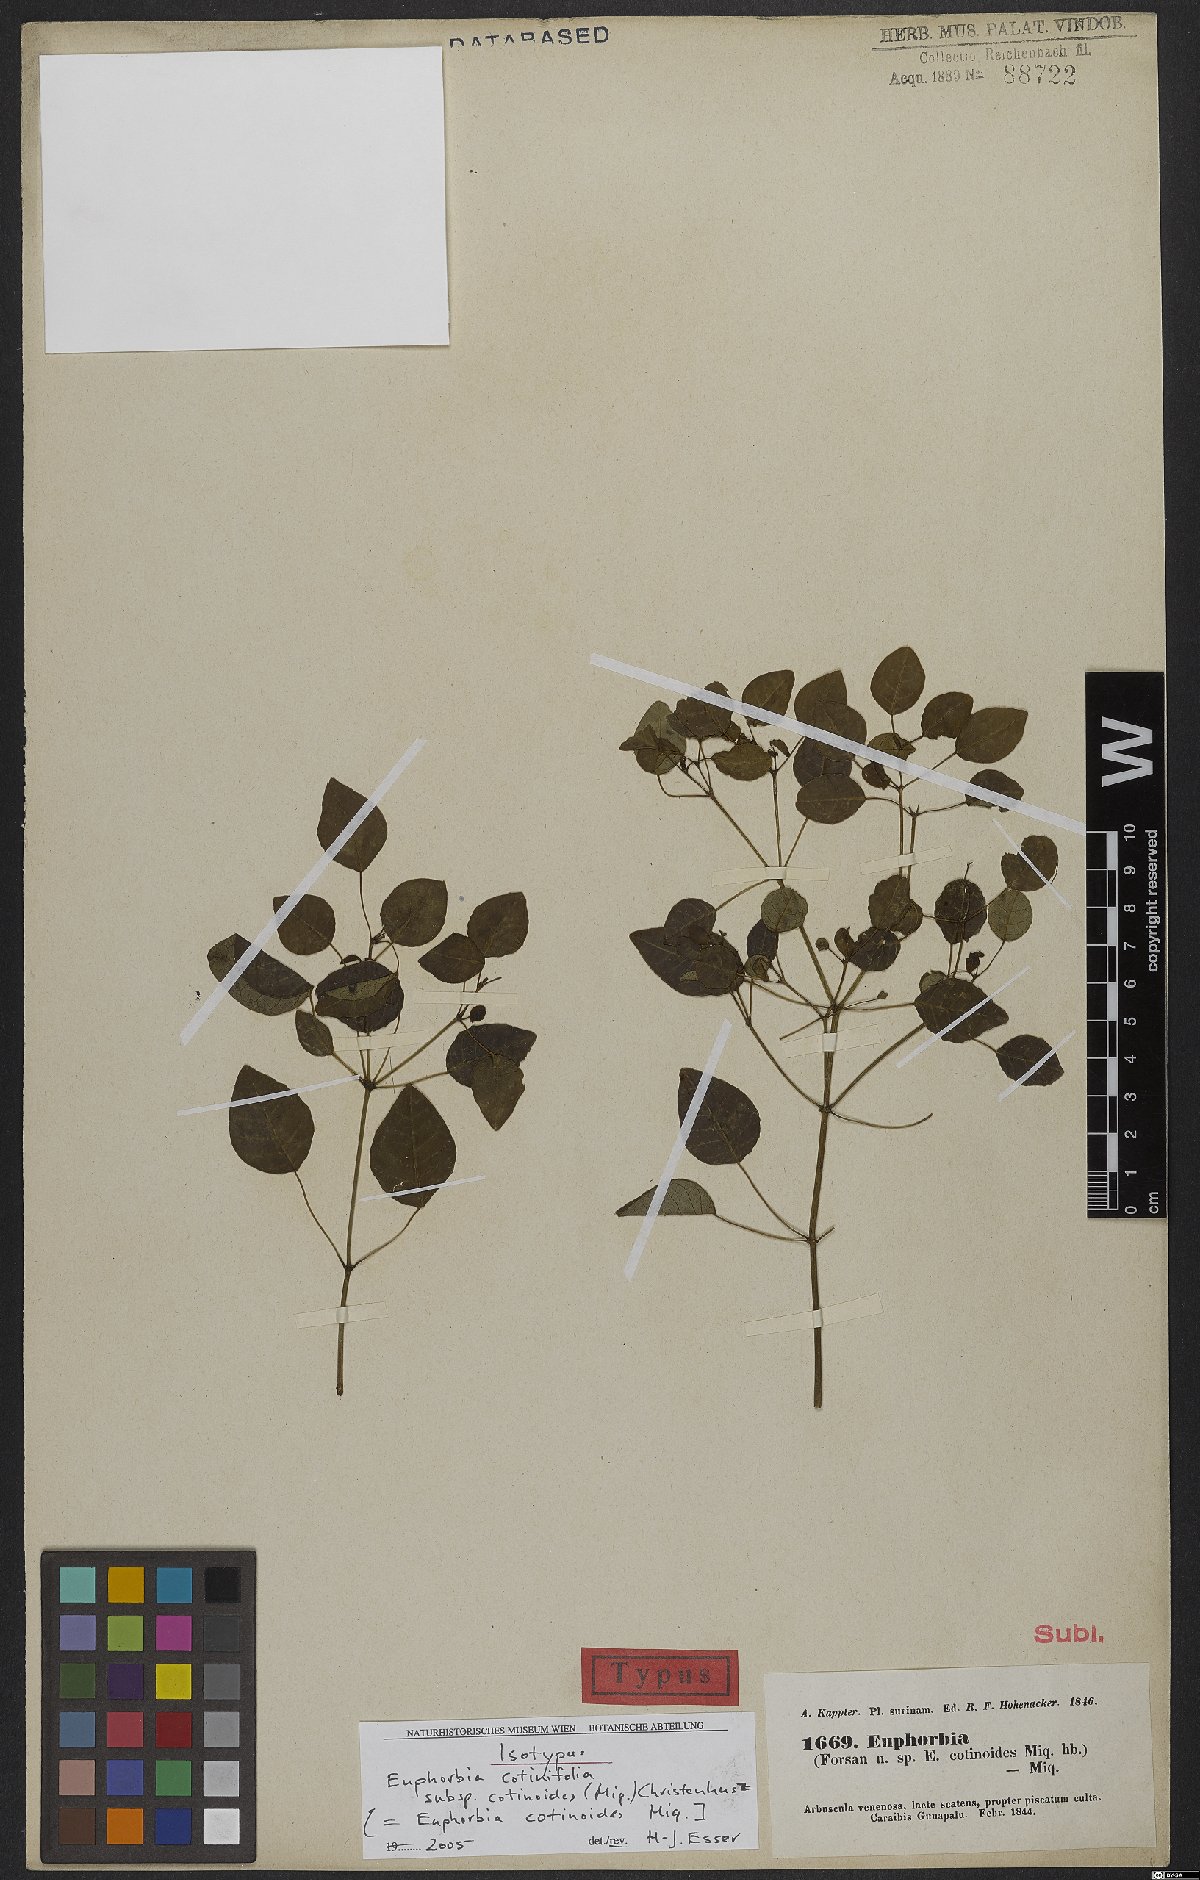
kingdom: Plantae
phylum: Tracheophyta
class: Magnoliopsida
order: Malpighiales
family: Euphorbiaceae
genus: Euphorbia
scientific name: Euphorbia cotinifolia
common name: Tropical smokebush
